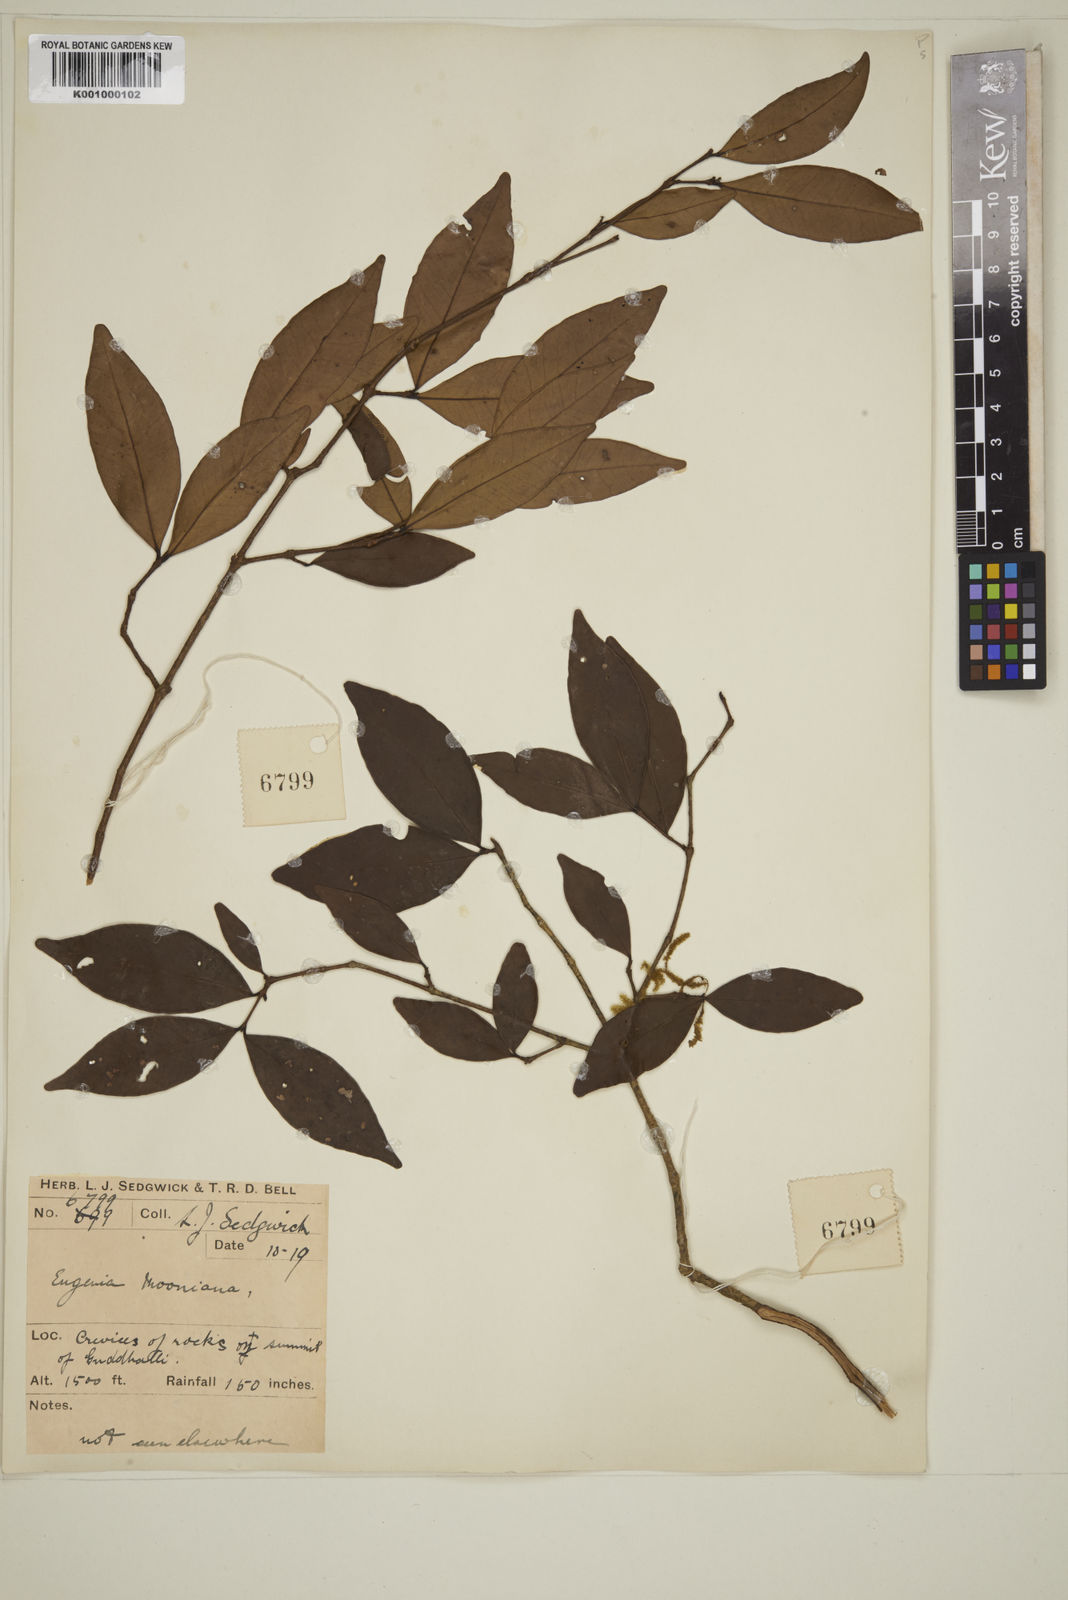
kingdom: Plantae
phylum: Tracheophyta
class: Magnoliopsida
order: Myrtales
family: Myrtaceae
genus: Eugenia
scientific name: Eugenia thwaitesii
